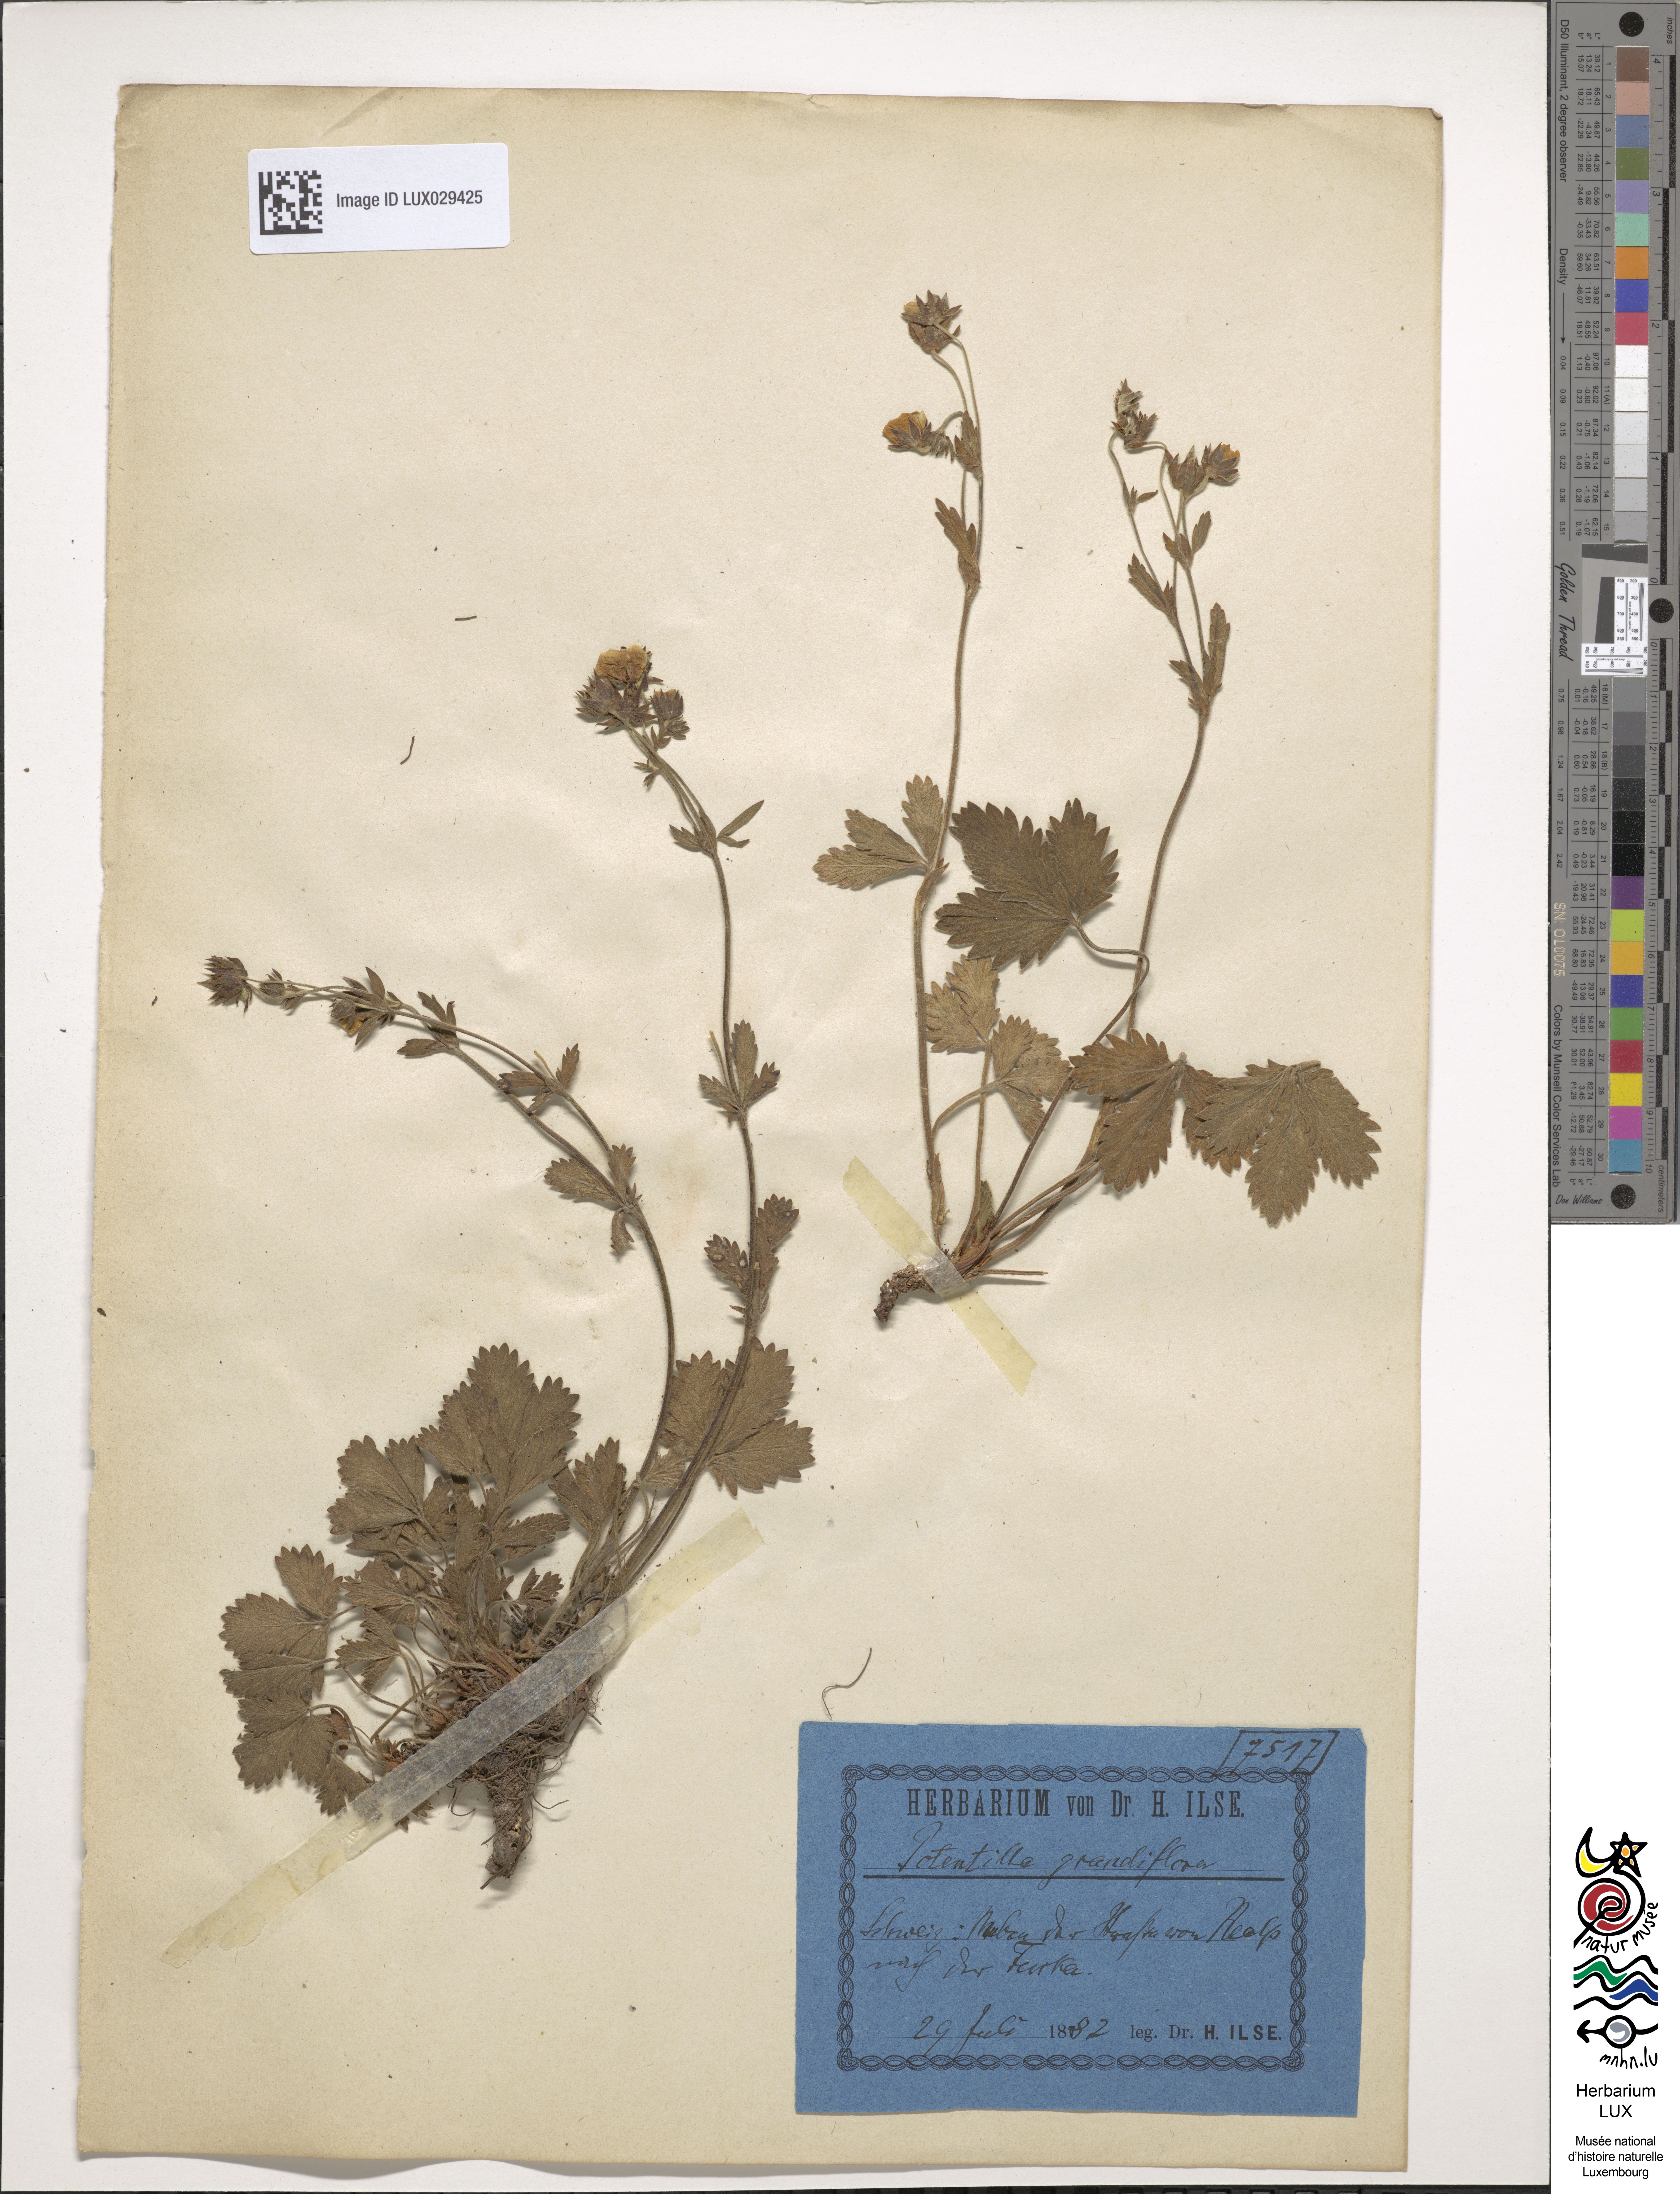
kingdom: Plantae
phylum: Tracheophyta
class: Magnoliopsida
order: Rosales
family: Rosaceae
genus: Potentilla
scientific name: Potentilla grandiflora
